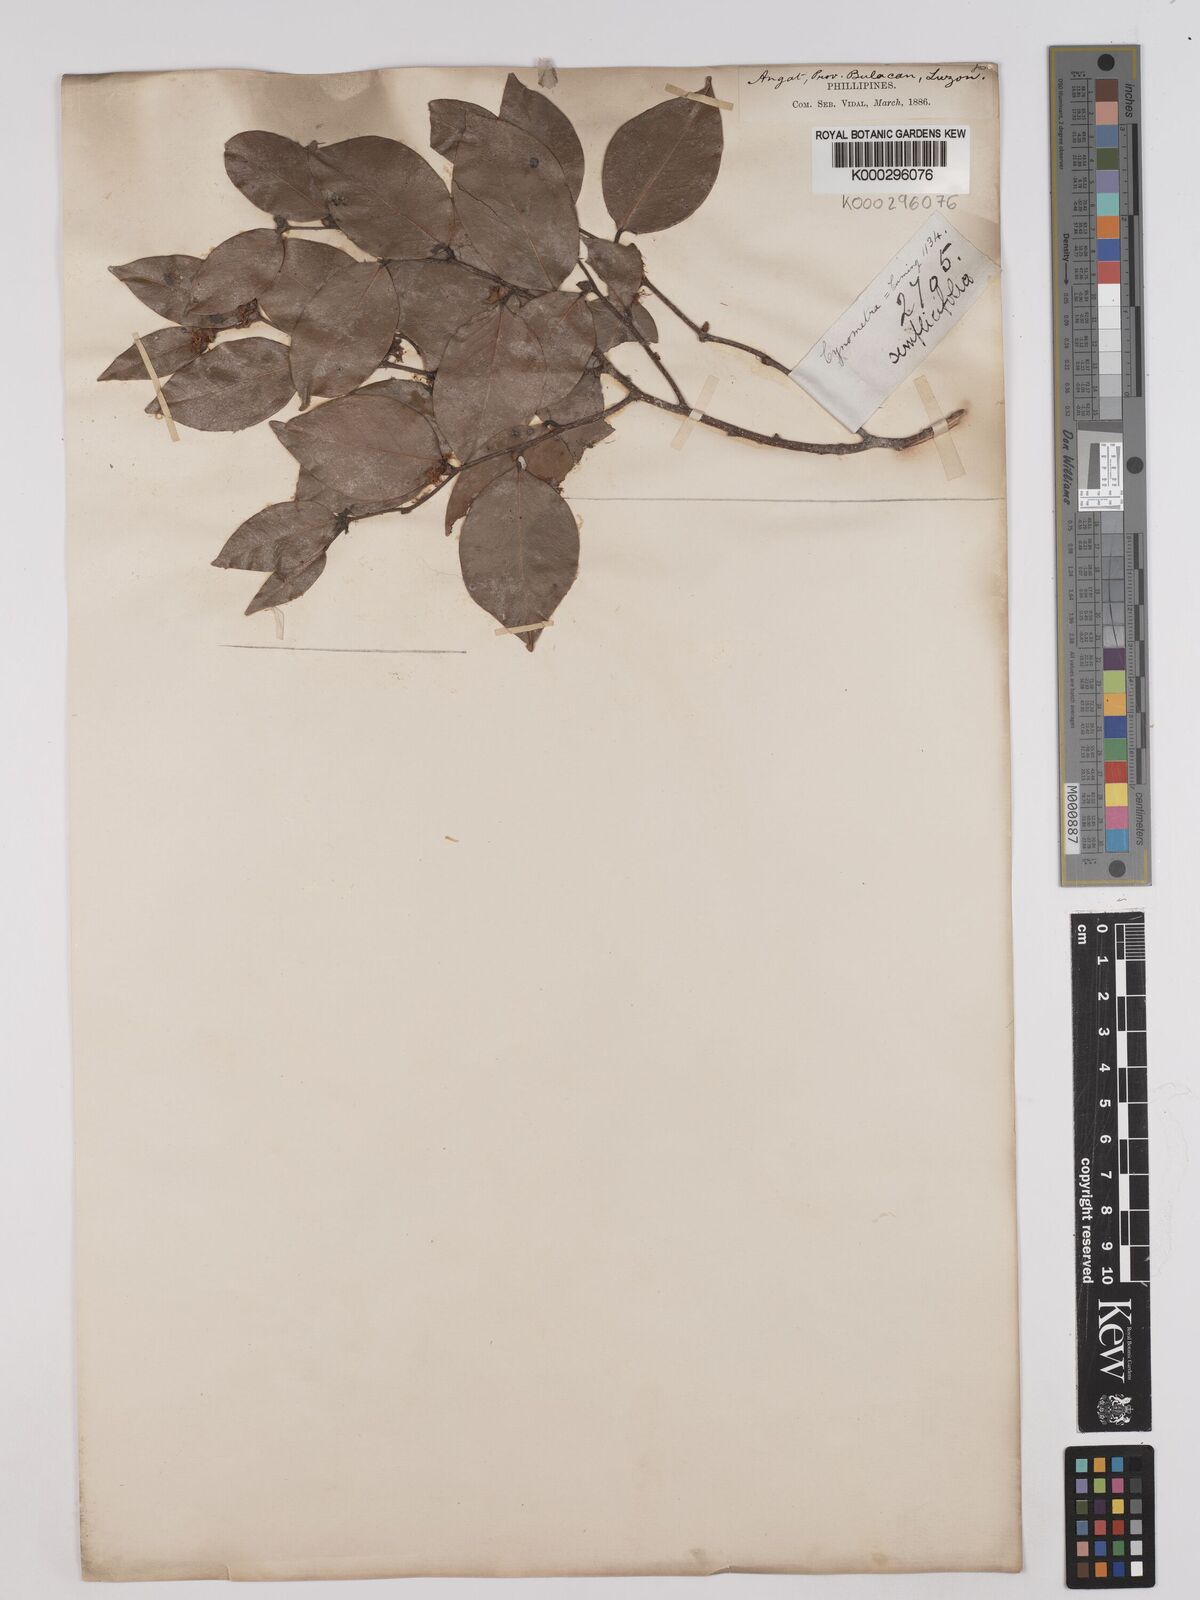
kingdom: Plantae
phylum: Tracheophyta
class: Magnoliopsida
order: Fabales
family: Fabaceae
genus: Cynometra
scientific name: Cynometra simplicifolia
